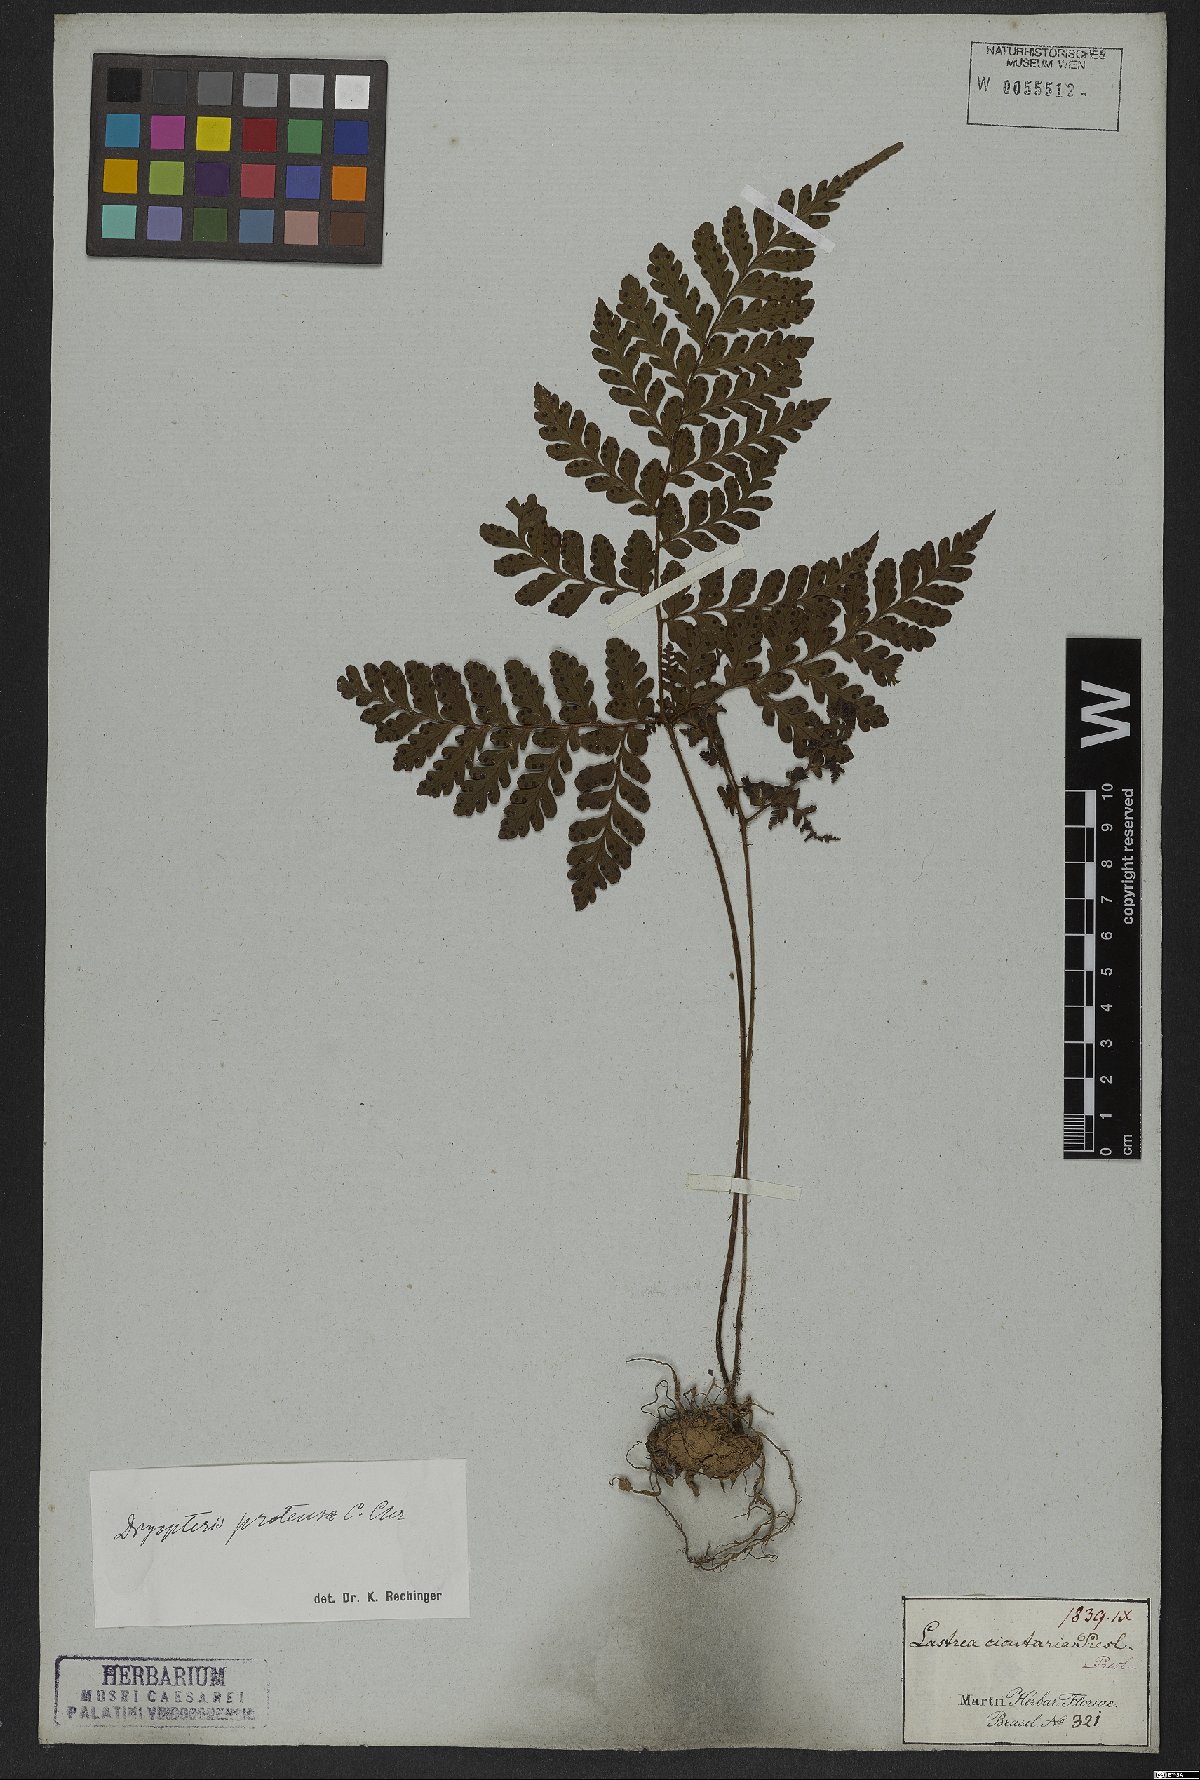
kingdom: Plantae
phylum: Tracheophyta
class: Polypodiopsida
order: Polypodiales
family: Tectariaceae
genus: Triplophyllum
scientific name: Triplophyllum protensum
